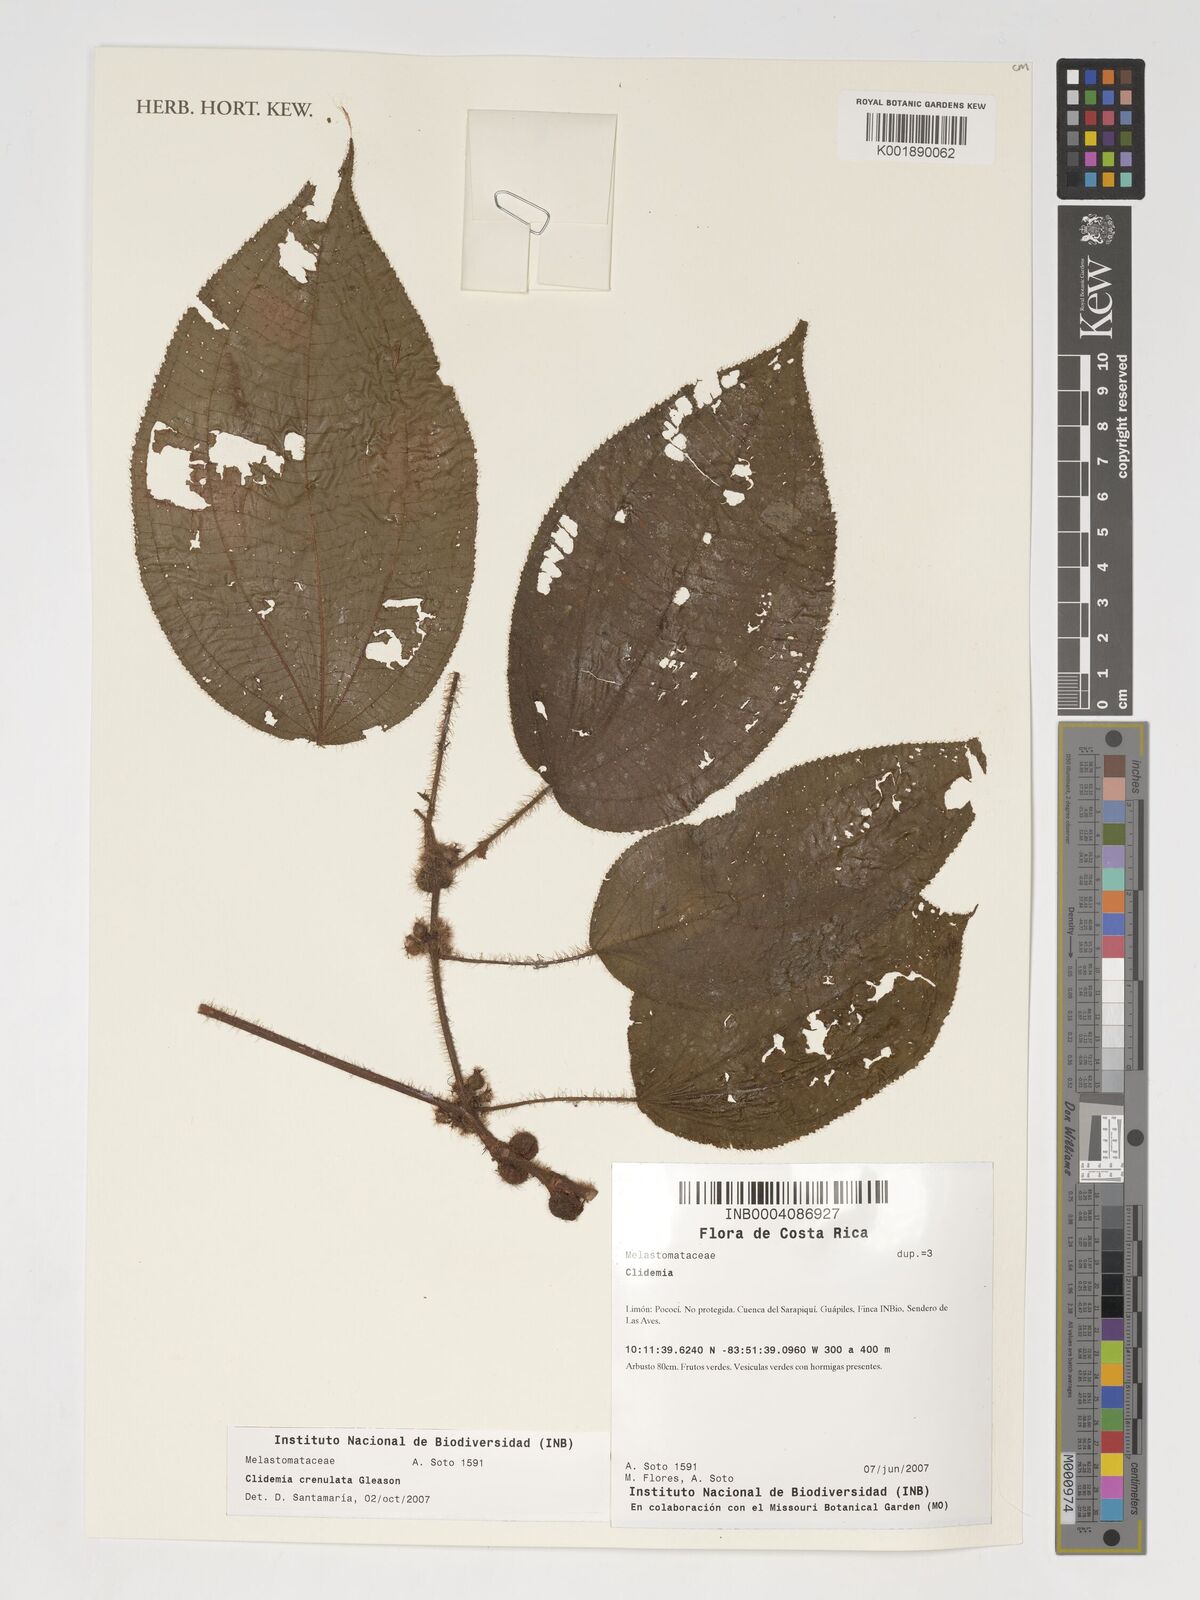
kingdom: Plantae
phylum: Tracheophyta
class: Magnoliopsida
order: Myrtales
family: Melastomataceae
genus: Miconia
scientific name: Miconia
